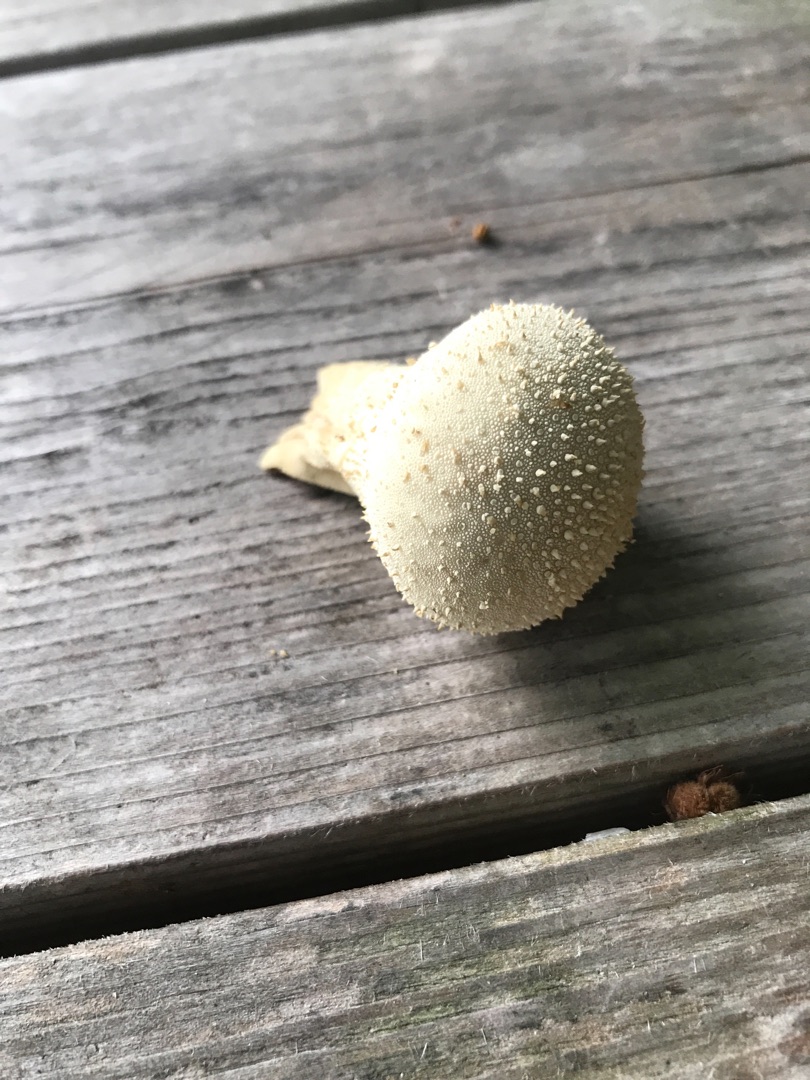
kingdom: Fungi
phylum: Basidiomycota
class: Agaricomycetes
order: Agaricales
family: Lycoperdaceae
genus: Lycoperdon
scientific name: Lycoperdon perlatum
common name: Krystal-støvbold
